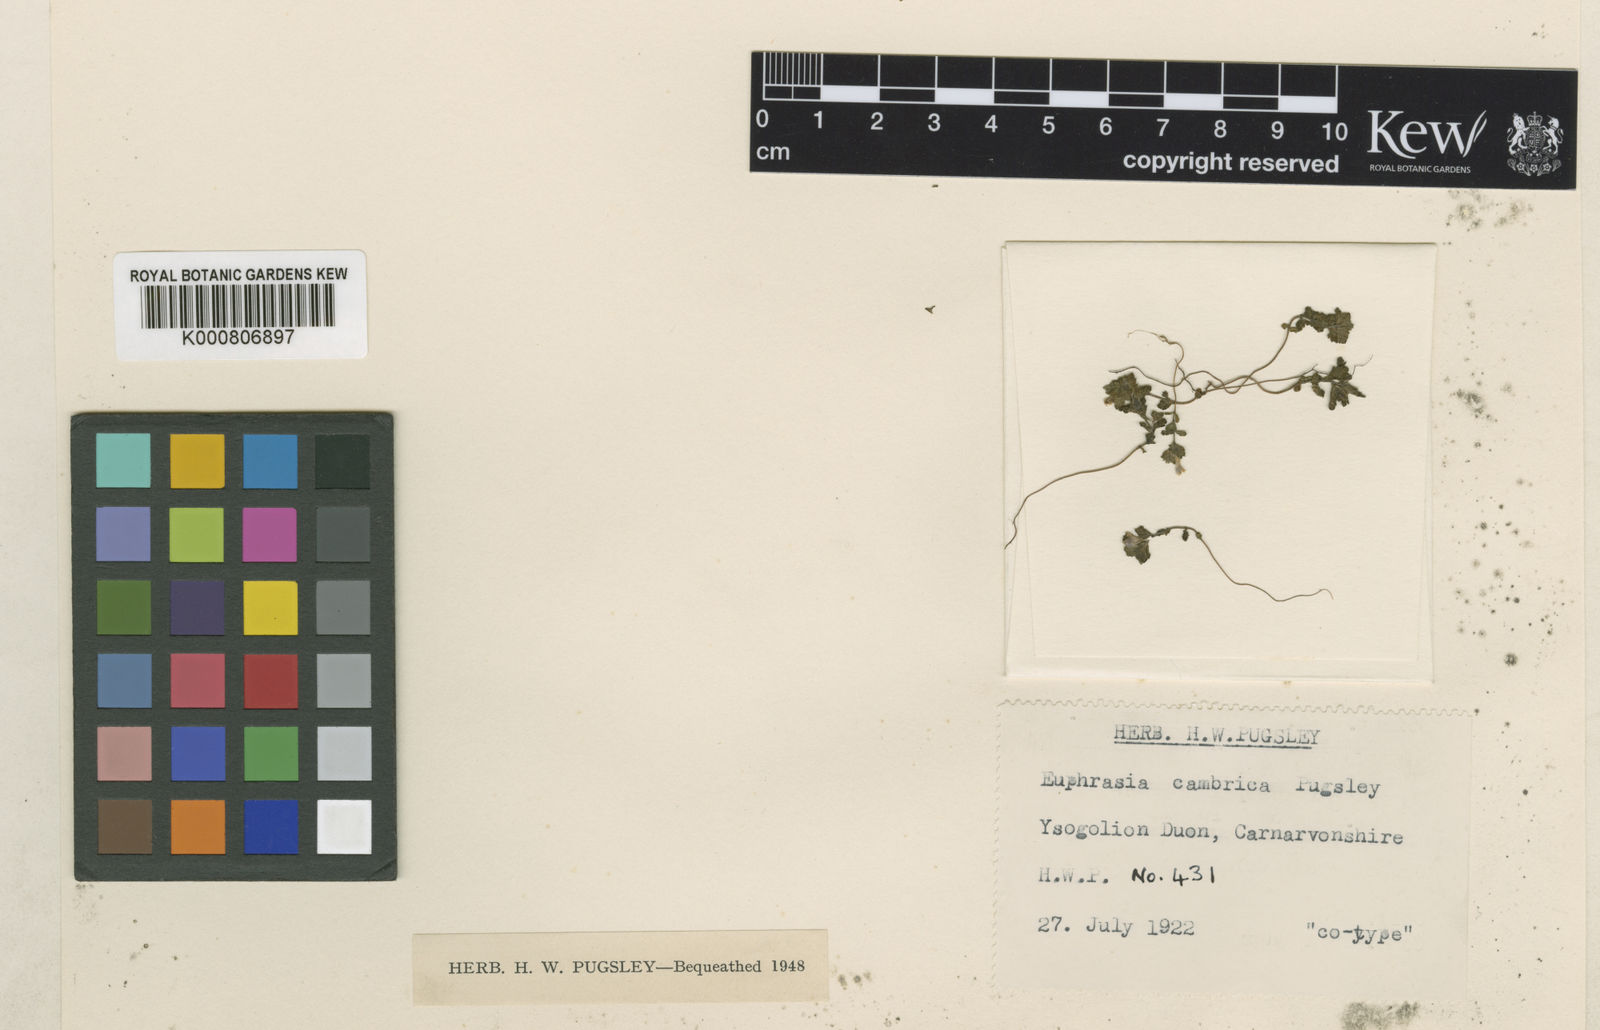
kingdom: Plantae
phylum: Tracheophyta
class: Magnoliopsida
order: Lamiales
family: Orobanchaceae
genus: Euphrasia
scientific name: Euphrasia cambrica
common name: Welsh eyebright
